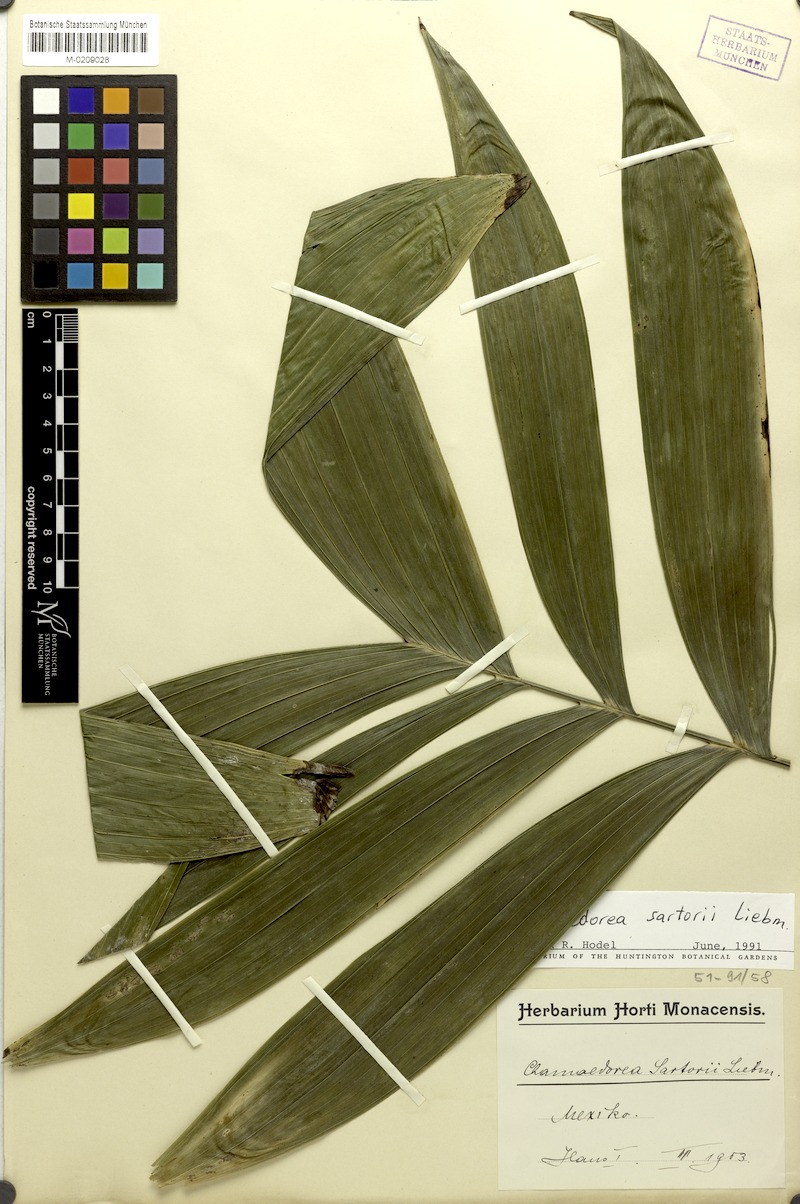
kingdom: Plantae
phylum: Tracheophyta
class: Liliopsida
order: Arecales
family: Arecaceae
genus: Chamaedorea
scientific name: Chamaedorea sartorii
